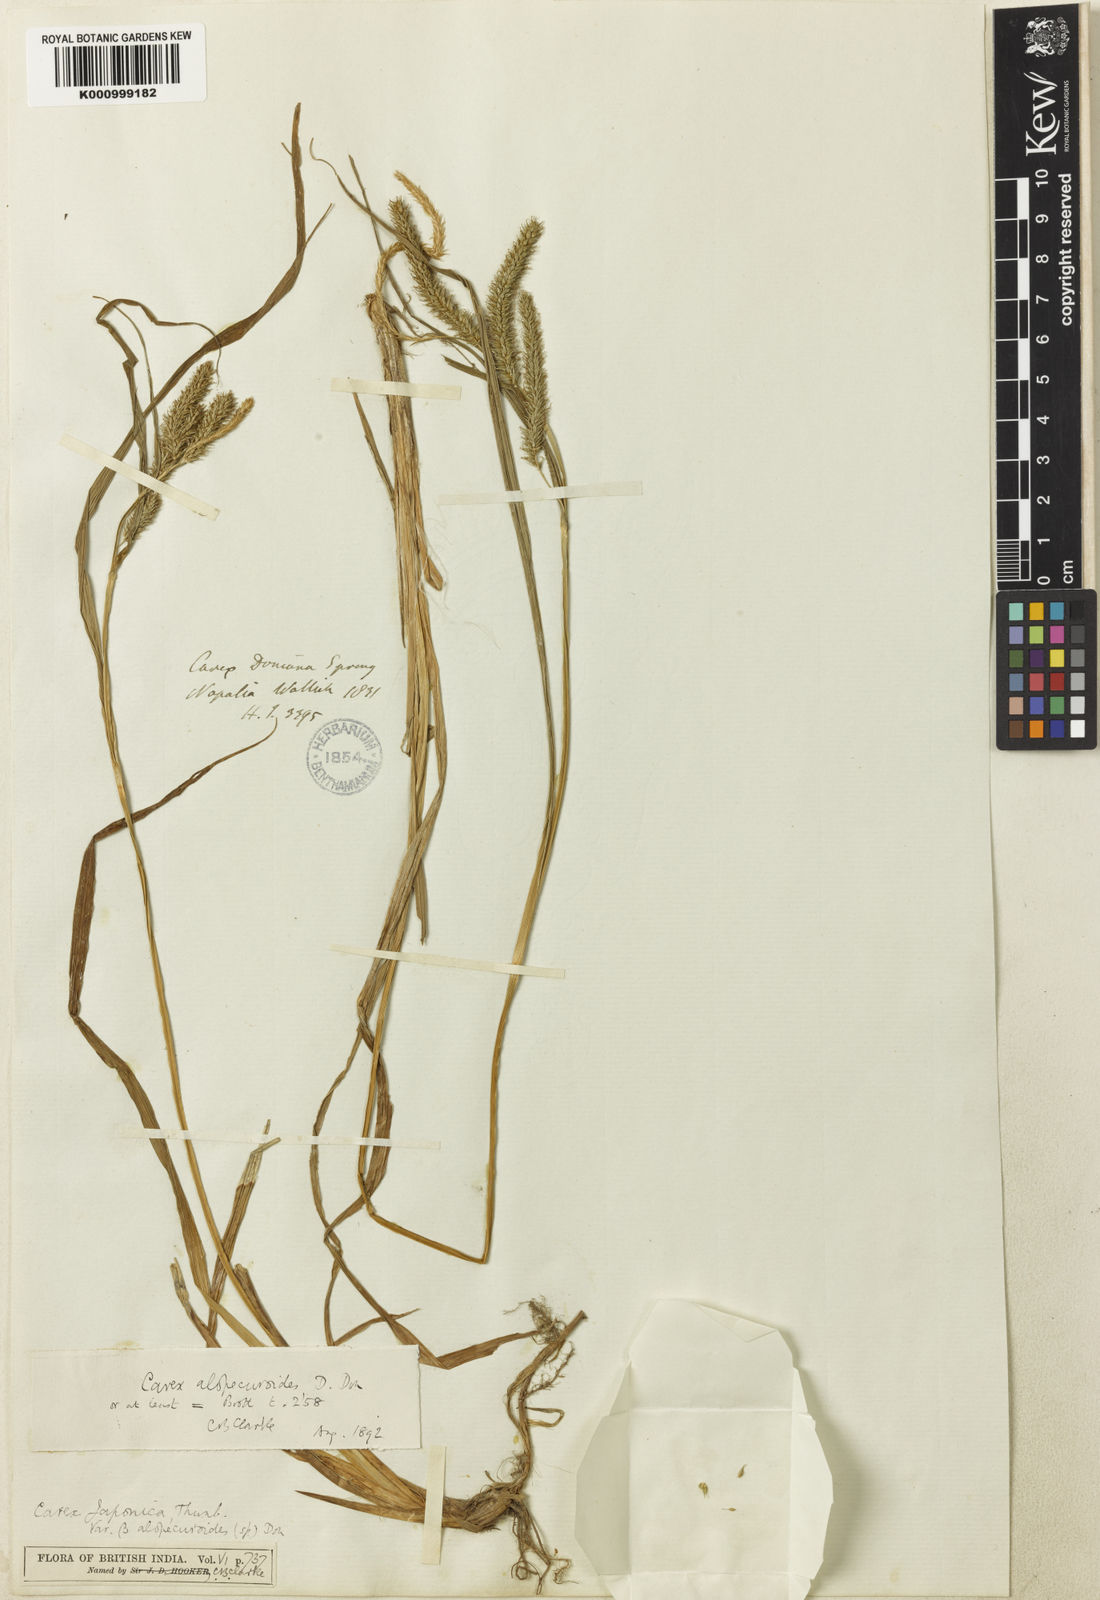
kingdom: Plantae
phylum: Tracheophyta
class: Liliopsida
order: Poales
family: Cyperaceae
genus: Carex
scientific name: Carex
